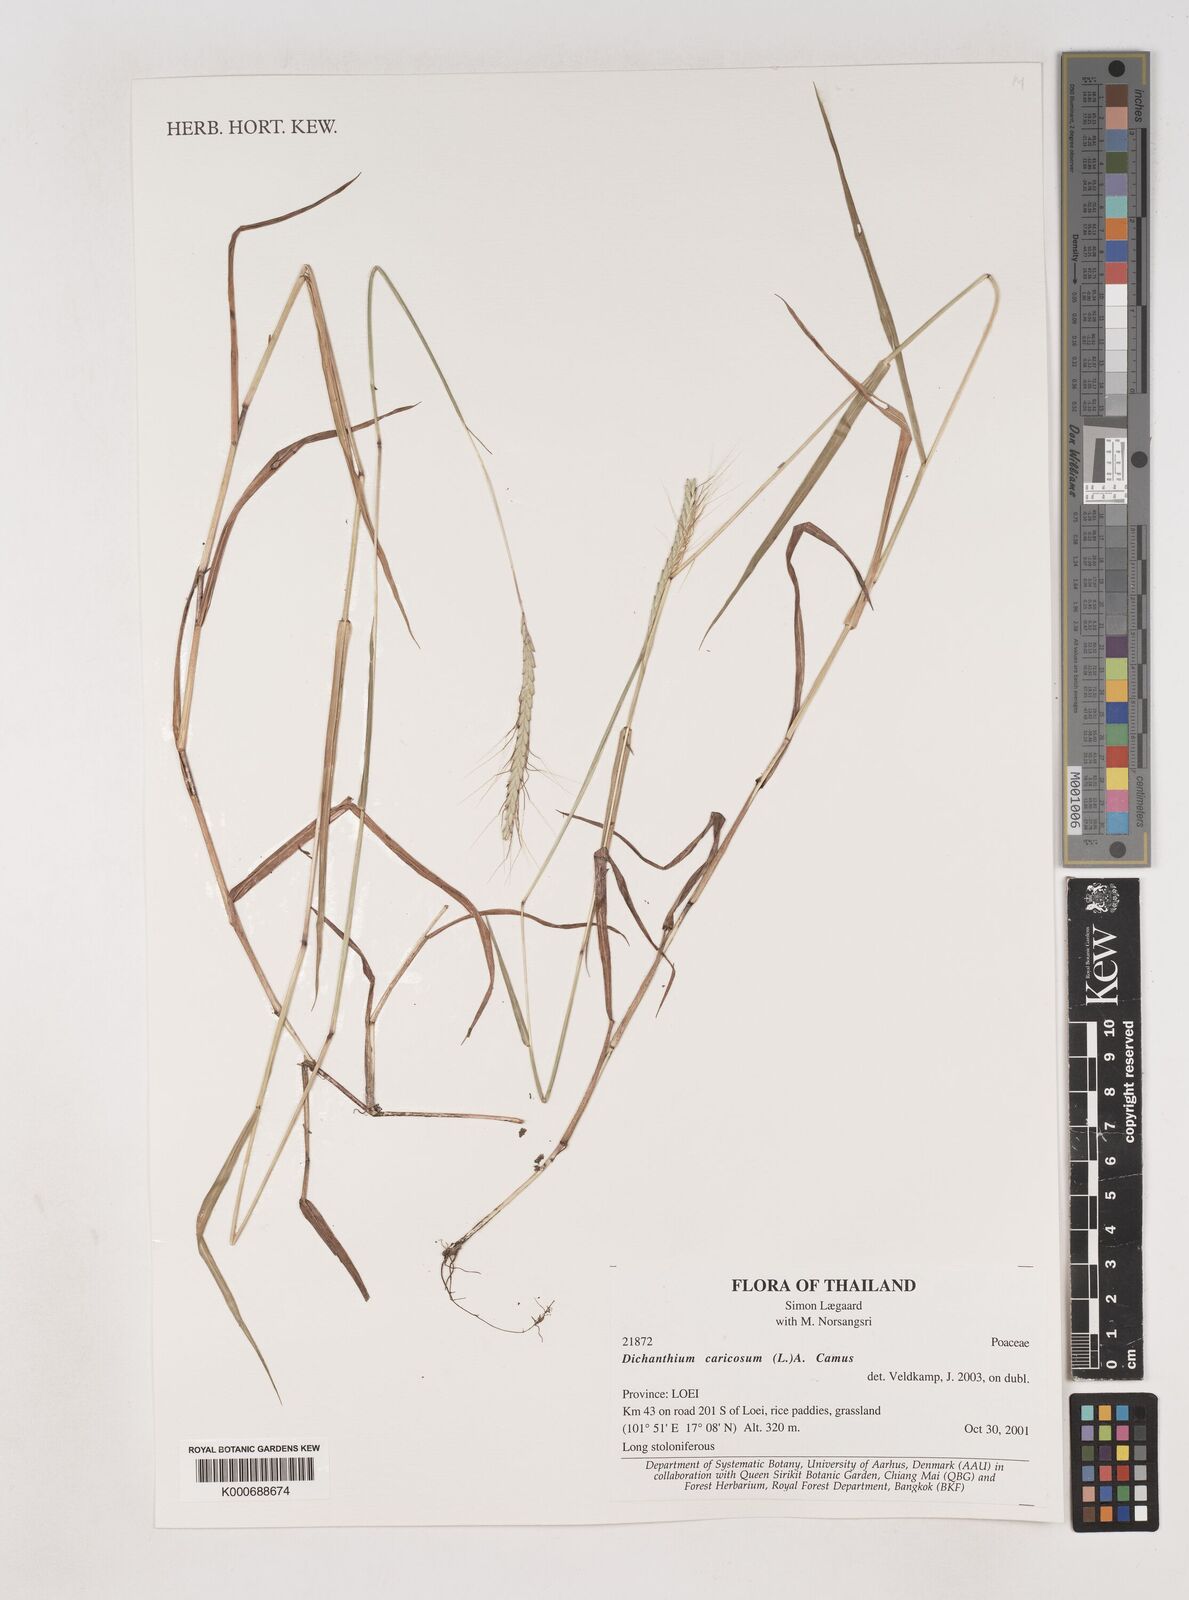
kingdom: Plantae
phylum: Tracheophyta
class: Liliopsida
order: Poales
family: Poaceae
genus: Dichanthium
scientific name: Dichanthium caricosum
